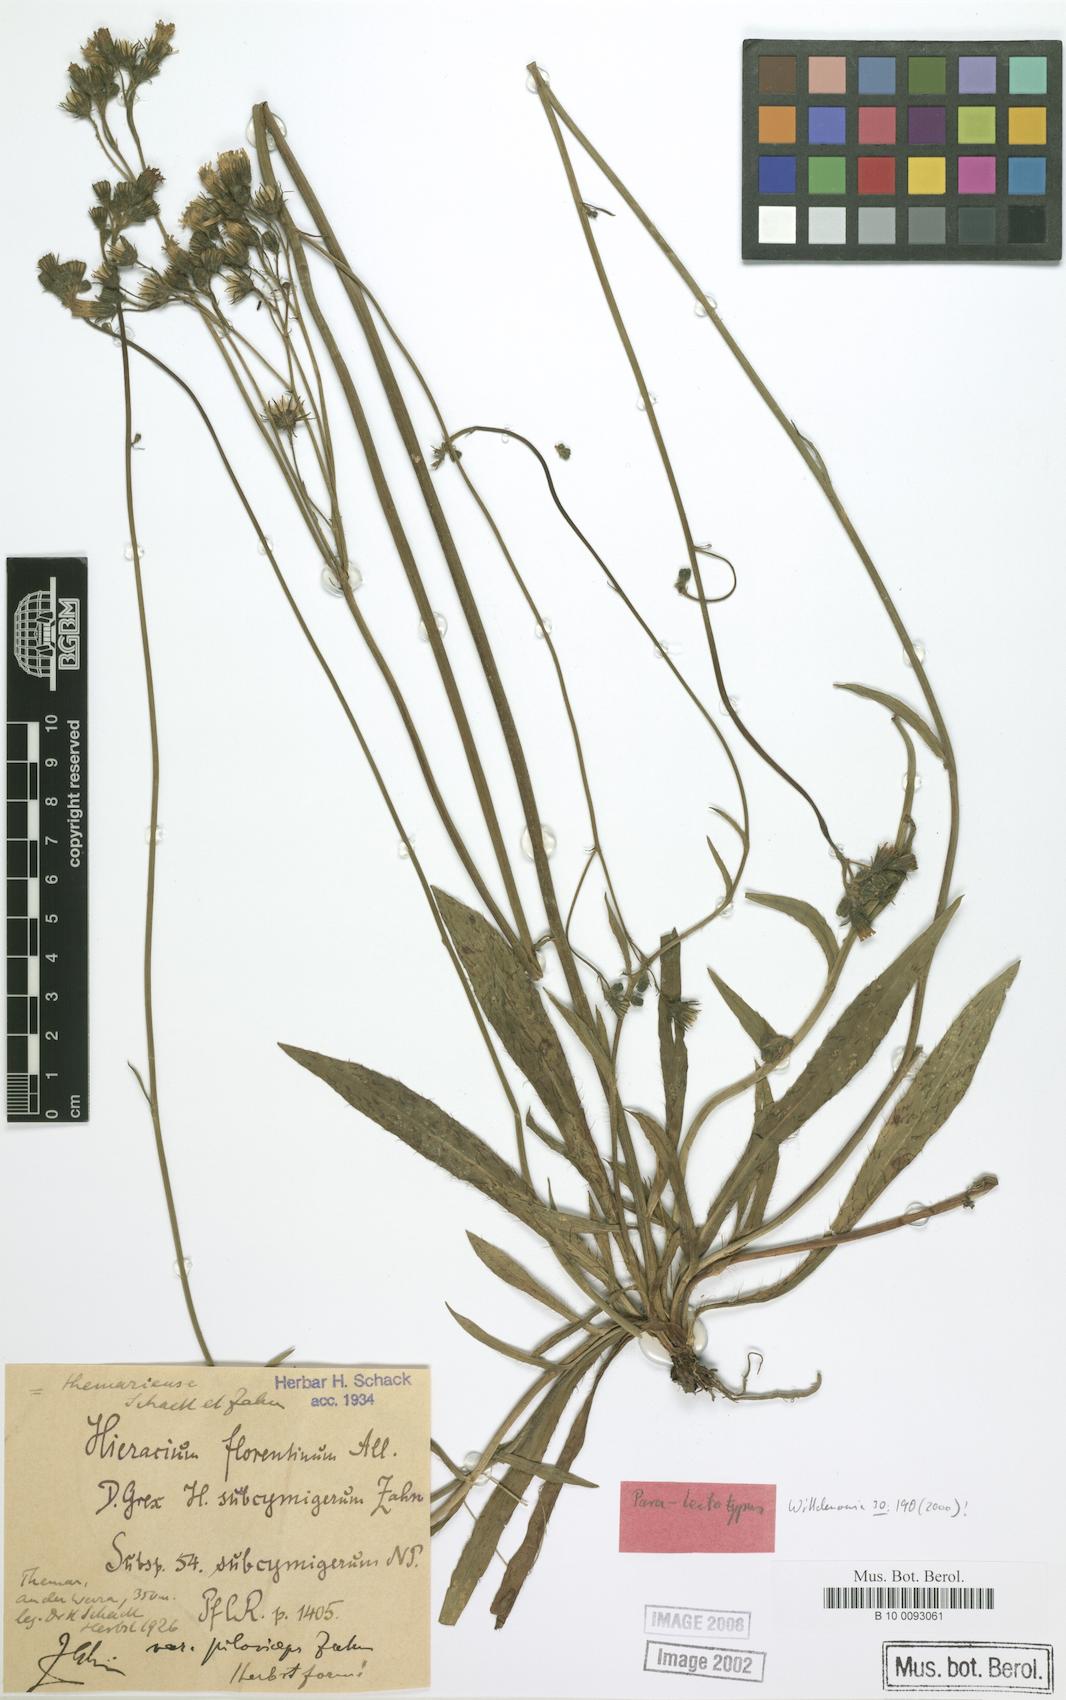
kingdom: Plantae
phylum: Tracheophyta
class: Magnoliopsida
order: Asterales
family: Asteraceae
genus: Pilosella
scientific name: Pilosella piloselloides
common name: Glaucous king-devil
